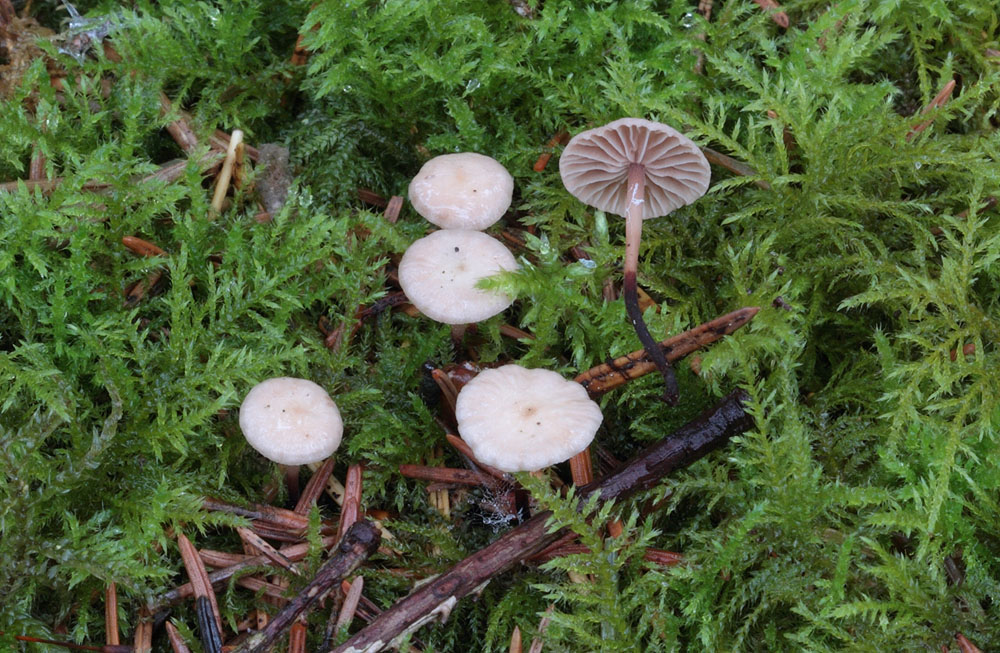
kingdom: Fungi
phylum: Basidiomycota
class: Agaricomycetes
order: Agaricales
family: Omphalotaceae
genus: Paragymnopus
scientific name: Paragymnopus perforans
